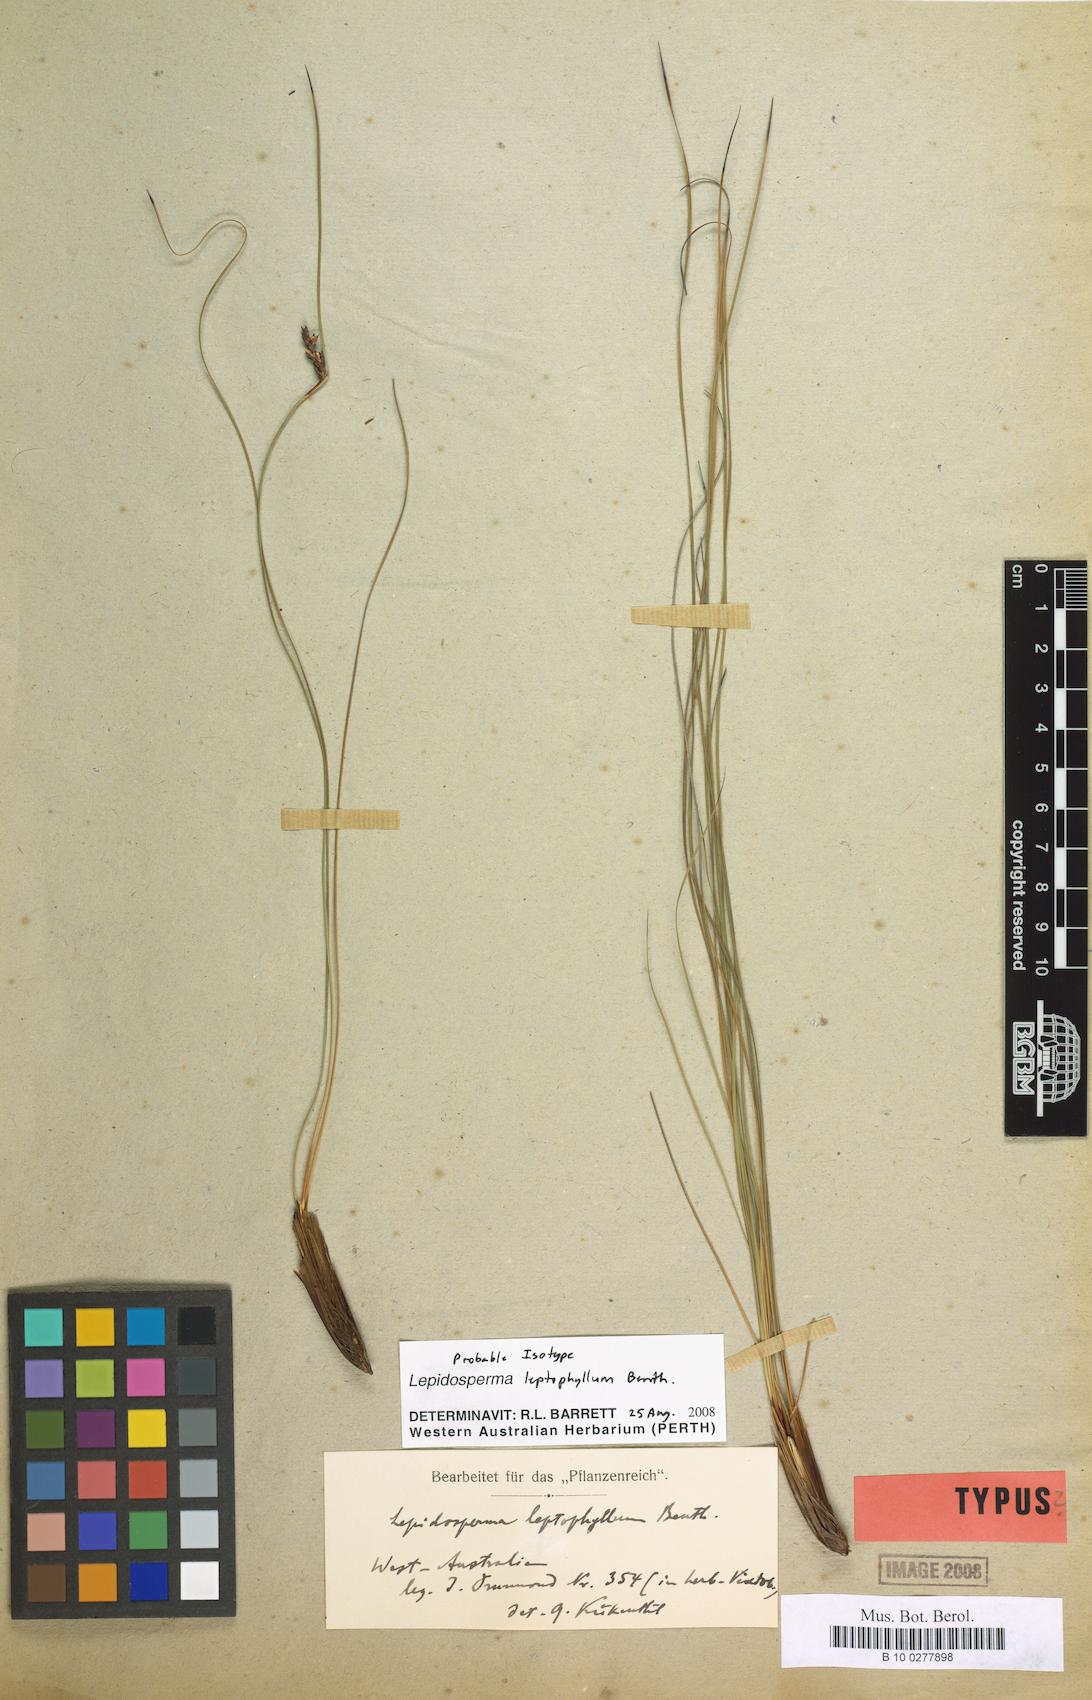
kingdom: Plantae
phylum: Tracheophyta
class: Liliopsida
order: Poales
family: Cyperaceae
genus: Lepidosperma
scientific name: Lepidosperma leptophyllum
